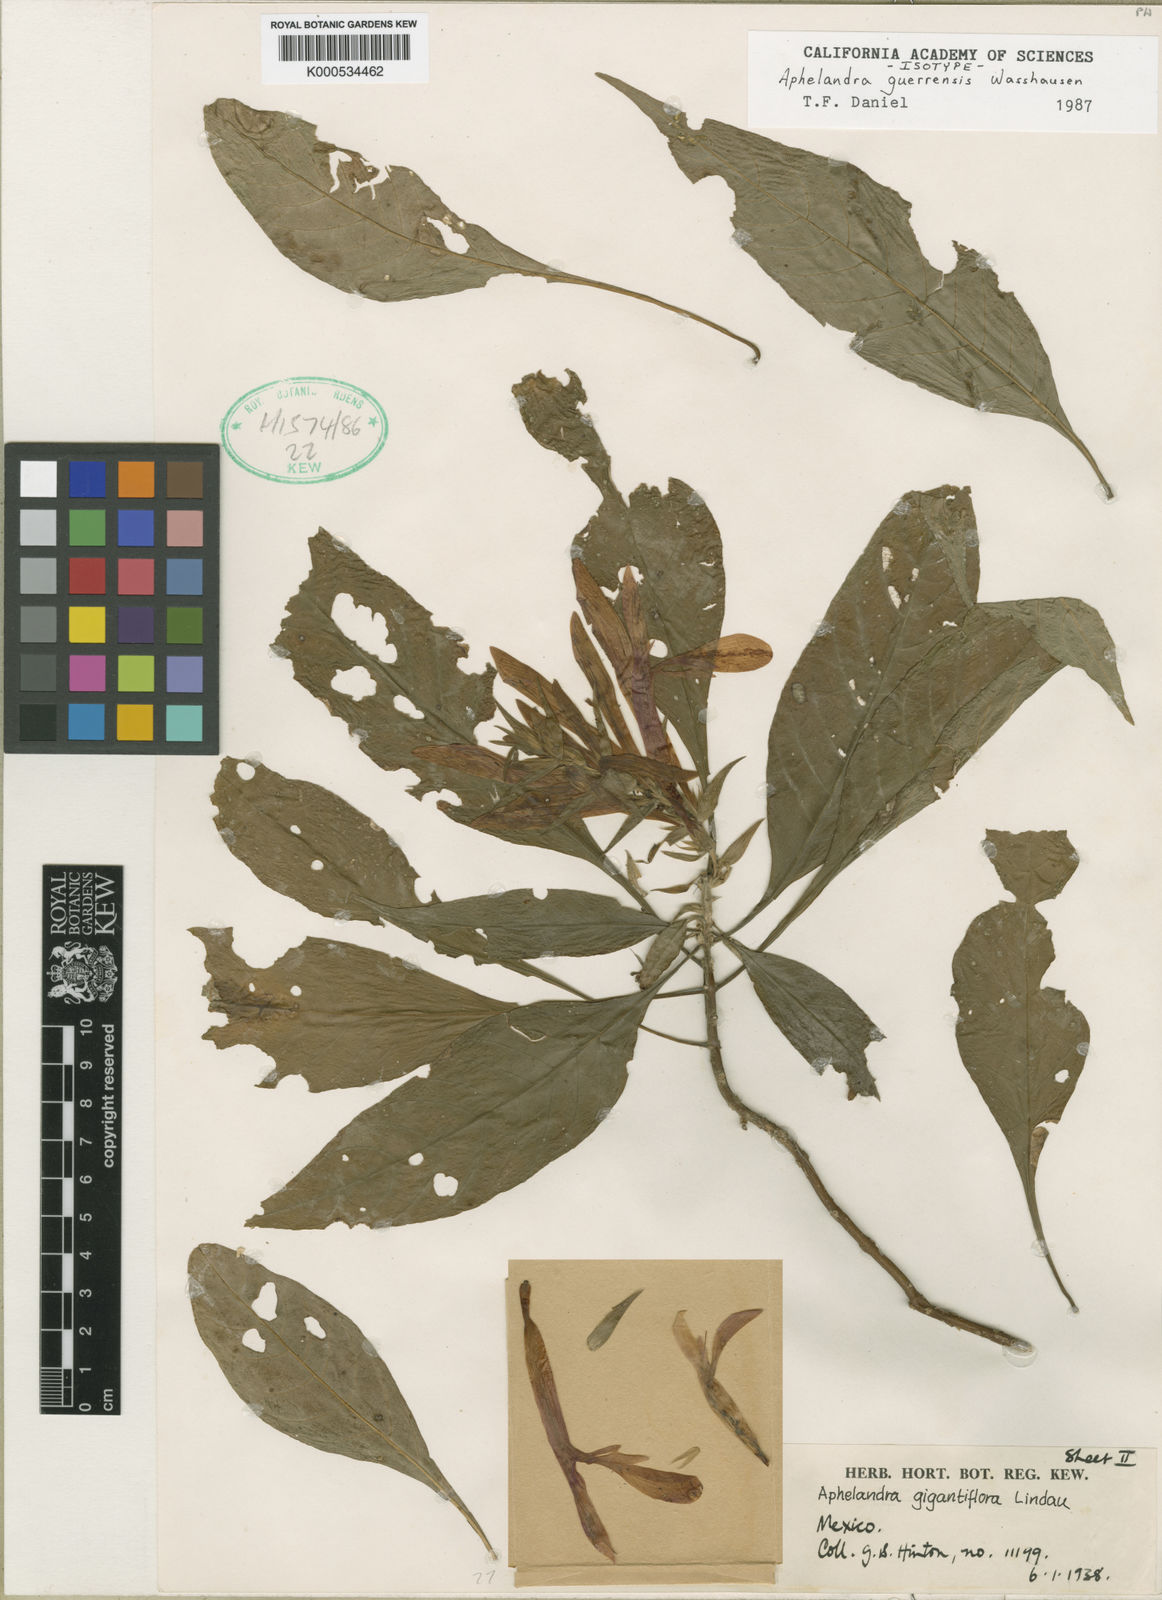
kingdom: Plantae
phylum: Tracheophyta
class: Magnoliopsida
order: Lamiales
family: Acanthaceae
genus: Aphelandra
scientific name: Aphelandra guerrerensis
